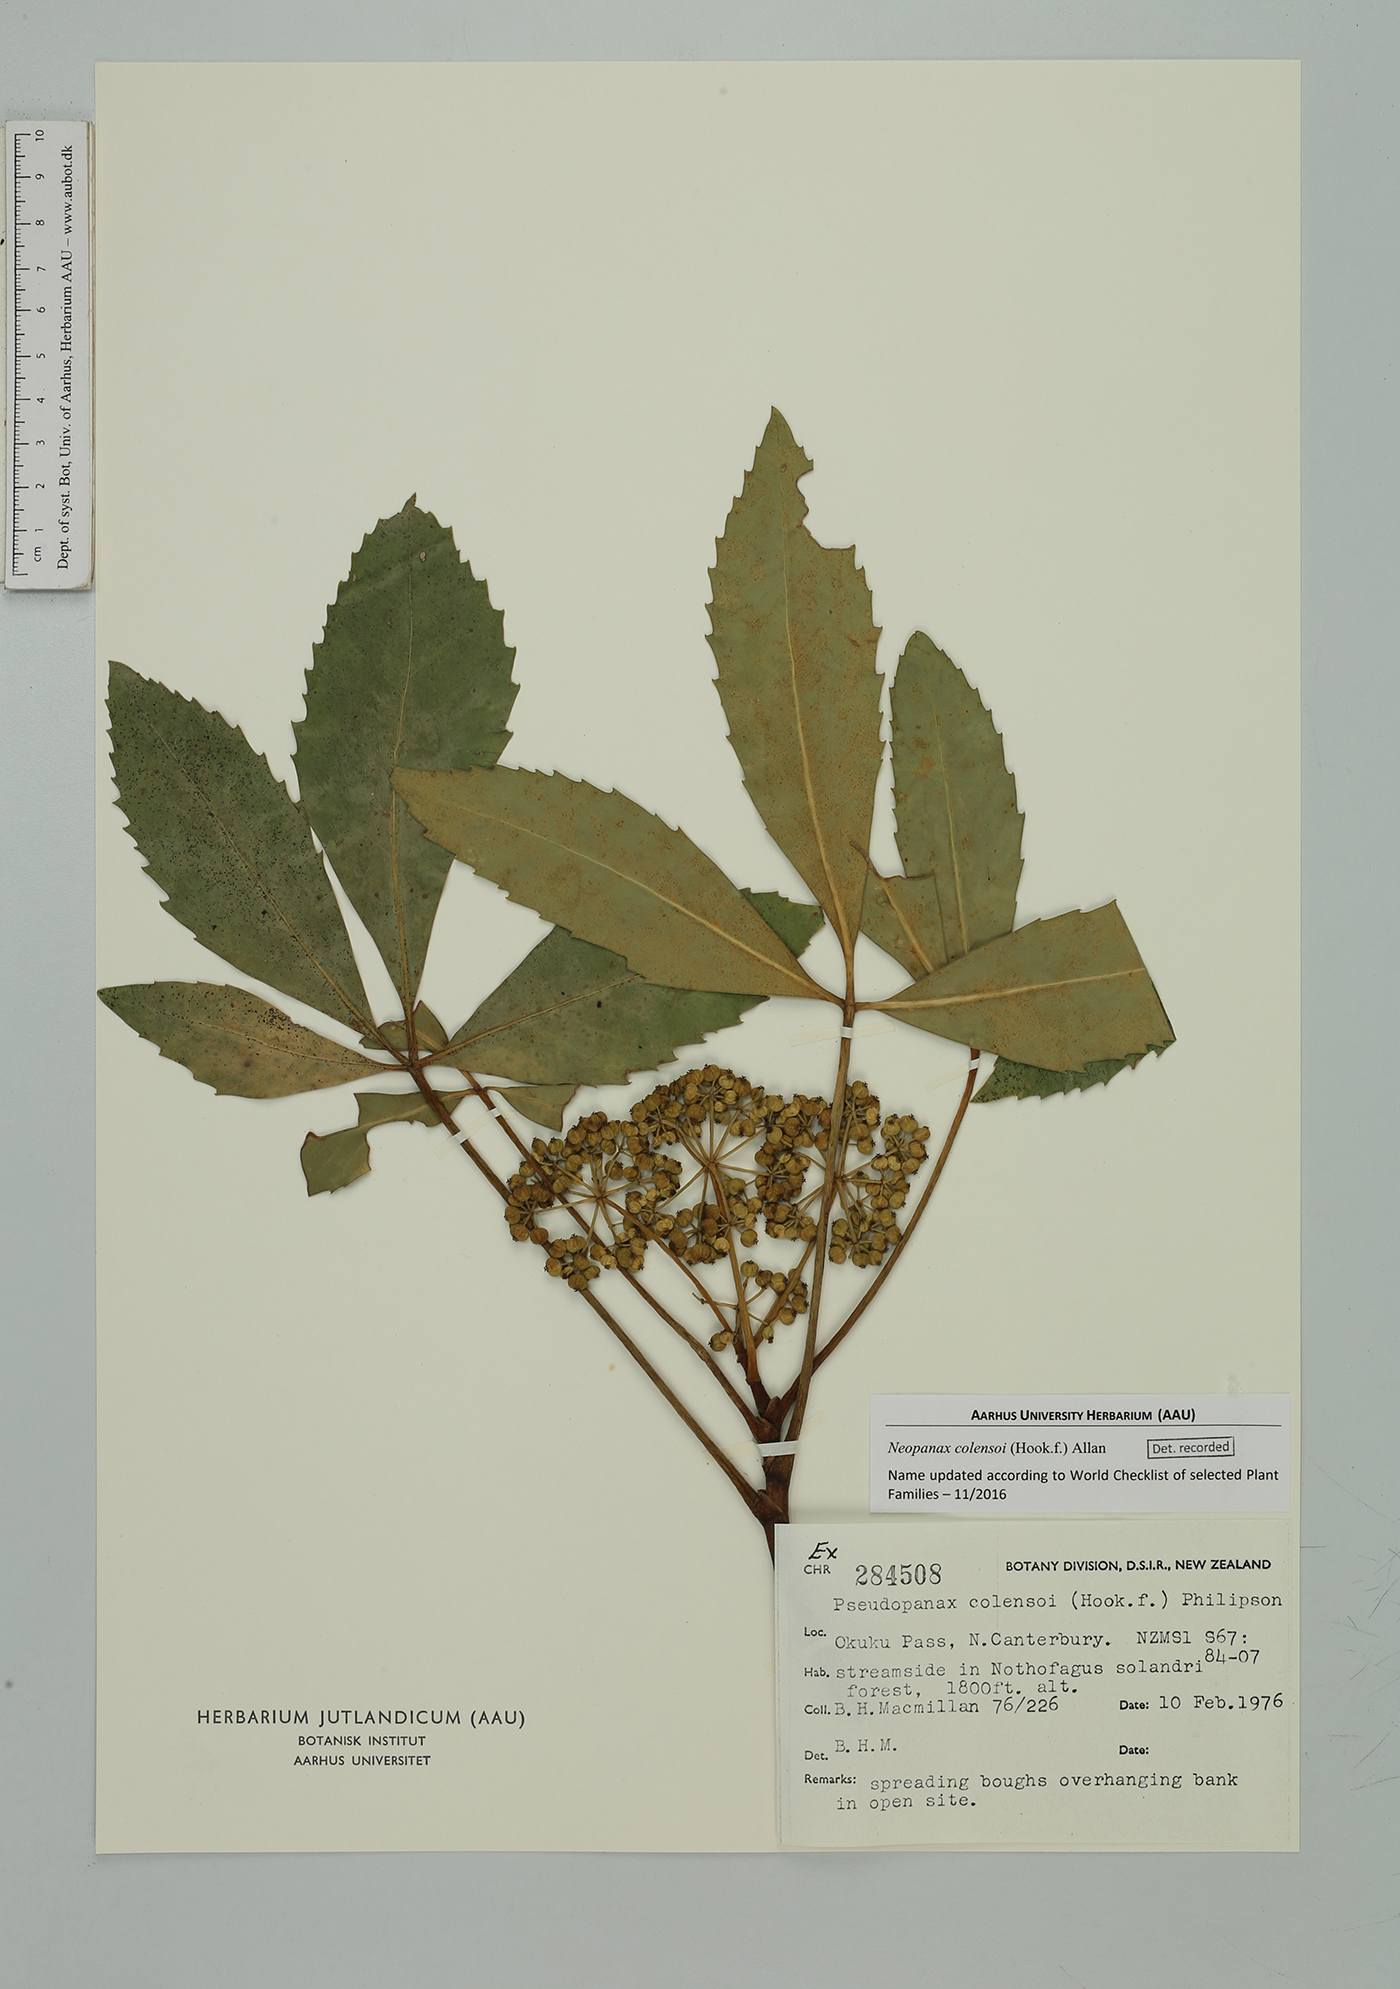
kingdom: Plantae
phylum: Tracheophyta
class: Magnoliopsida
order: Apiales
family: Araliaceae
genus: Neopanax
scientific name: Neopanax colensoi
